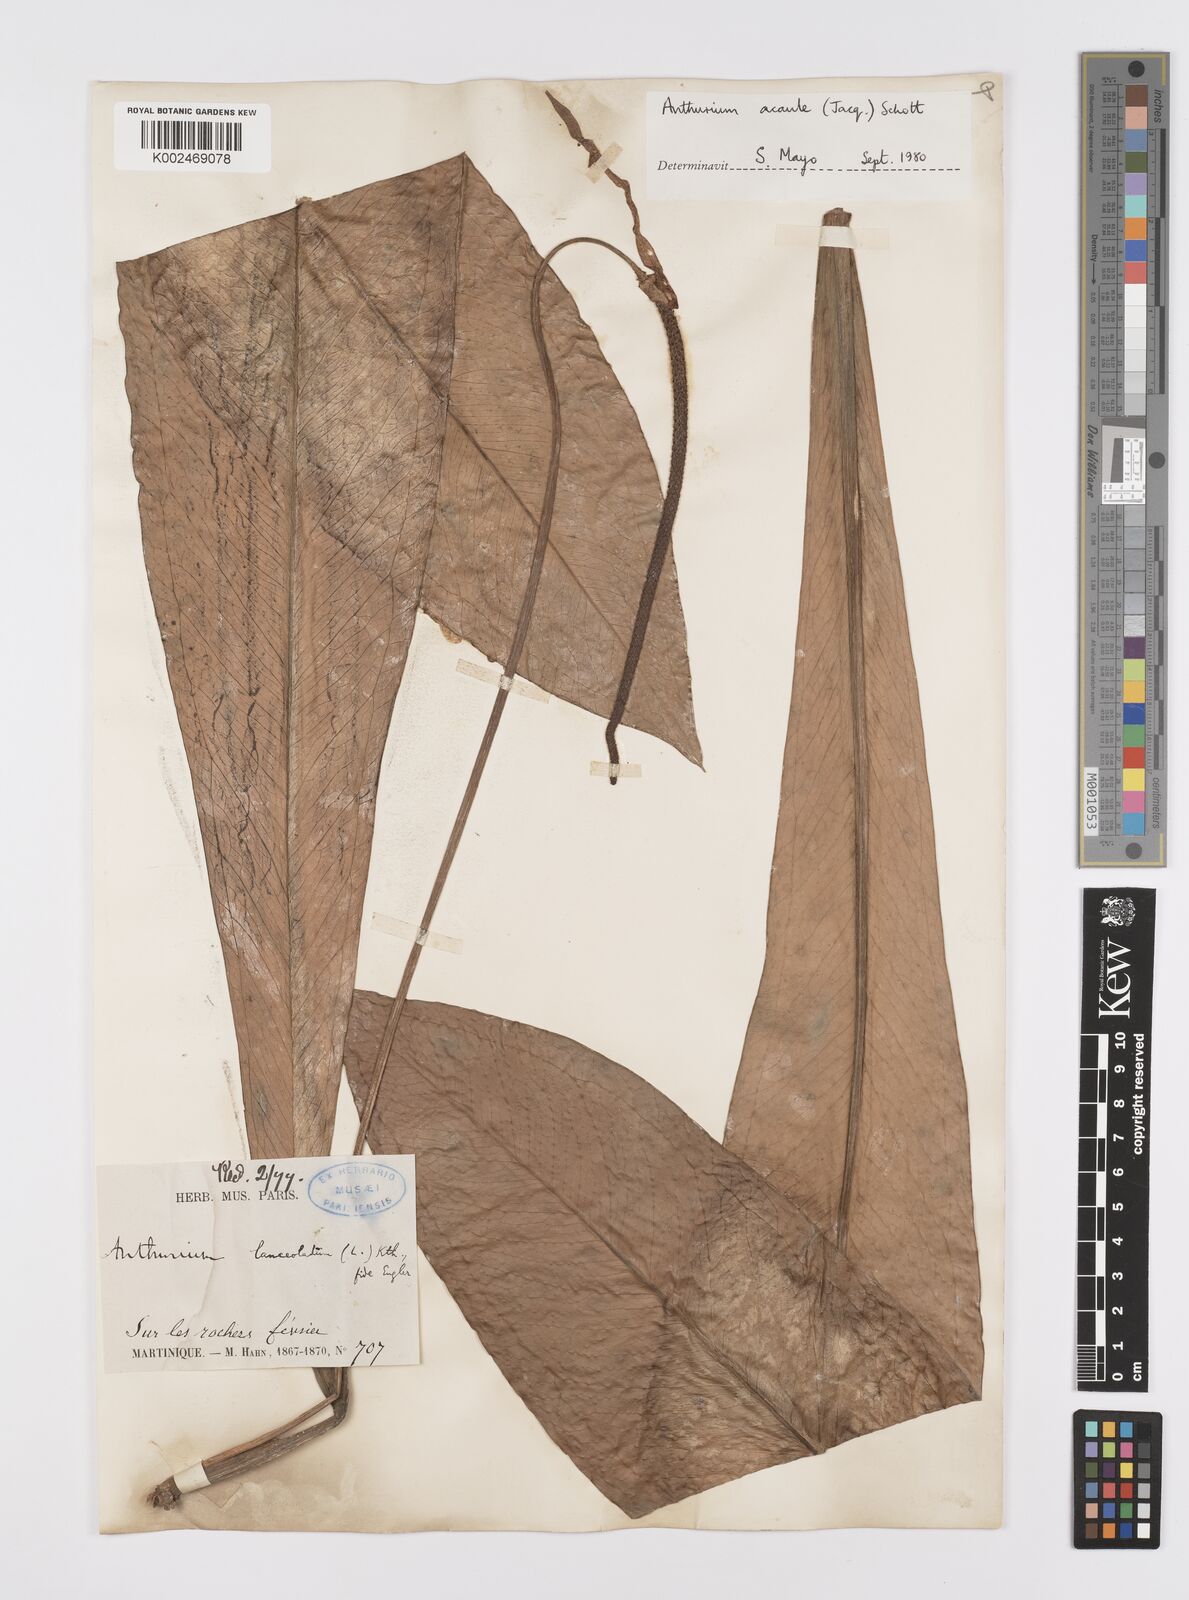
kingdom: Plantae
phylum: Tracheophyta
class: Liliopsida
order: Alismatales
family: Araceae
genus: Anthurium
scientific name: Anthurium acaule
